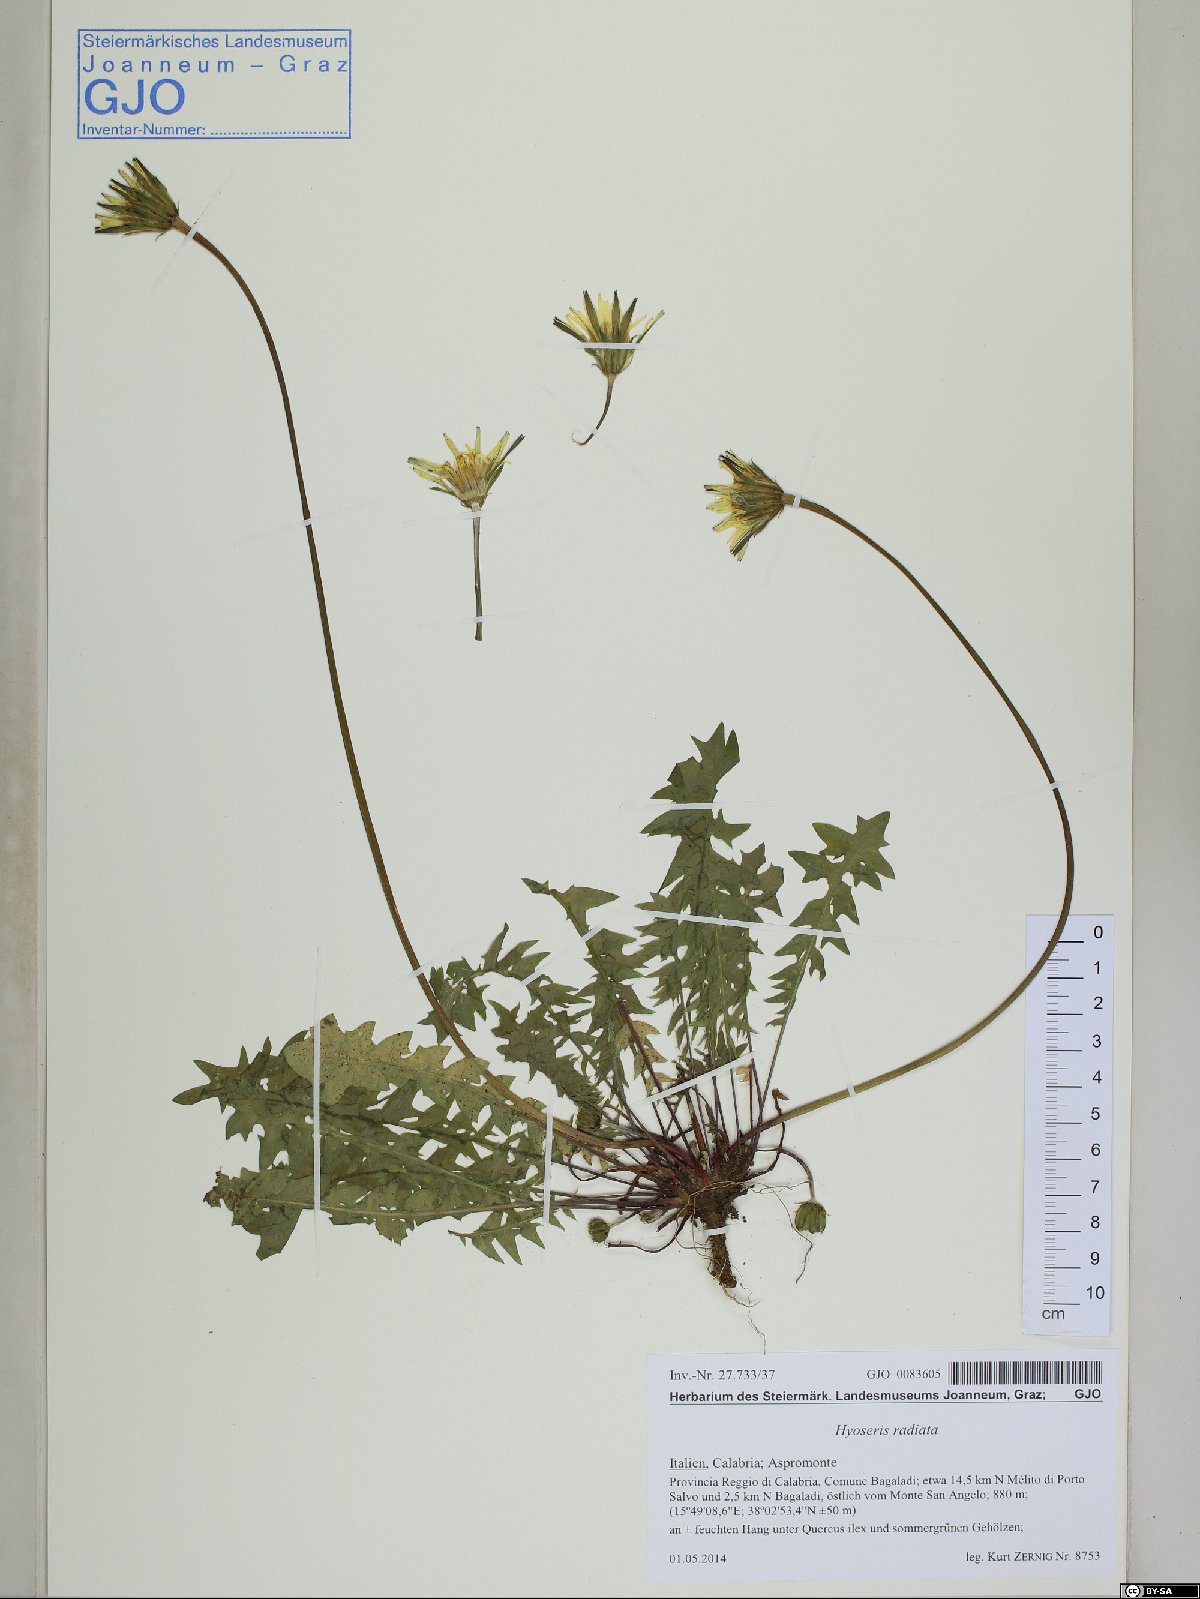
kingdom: Plantae
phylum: Tracheophyta
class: Magnoliopsida
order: Asterales
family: Asteraceae
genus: Hyoseris
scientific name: Hyoseris radiata
